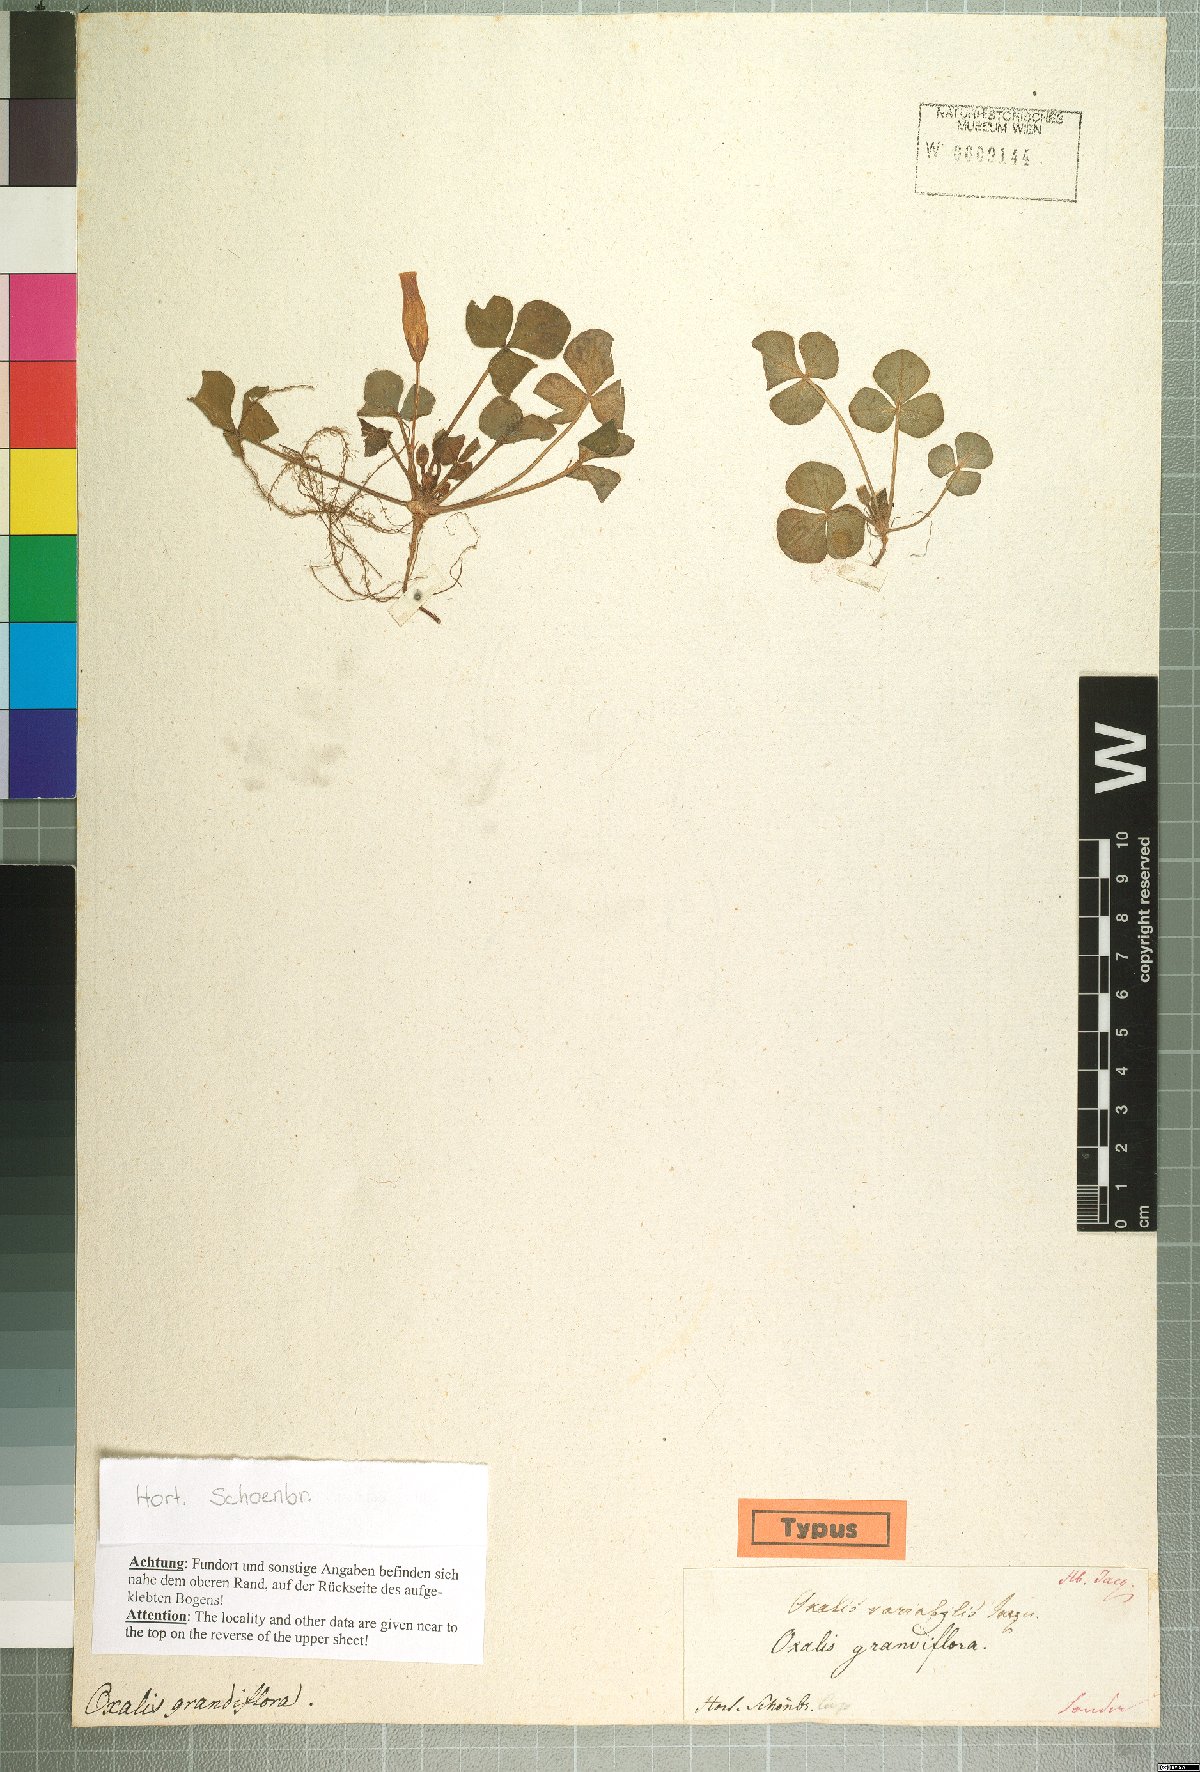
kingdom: Plantae
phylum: Tracheophyta
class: Magnoliopsida
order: Oxalidales
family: Oxalidaceae
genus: Oxalis
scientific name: Oxalis purpurea
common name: Purple woodsorrel
